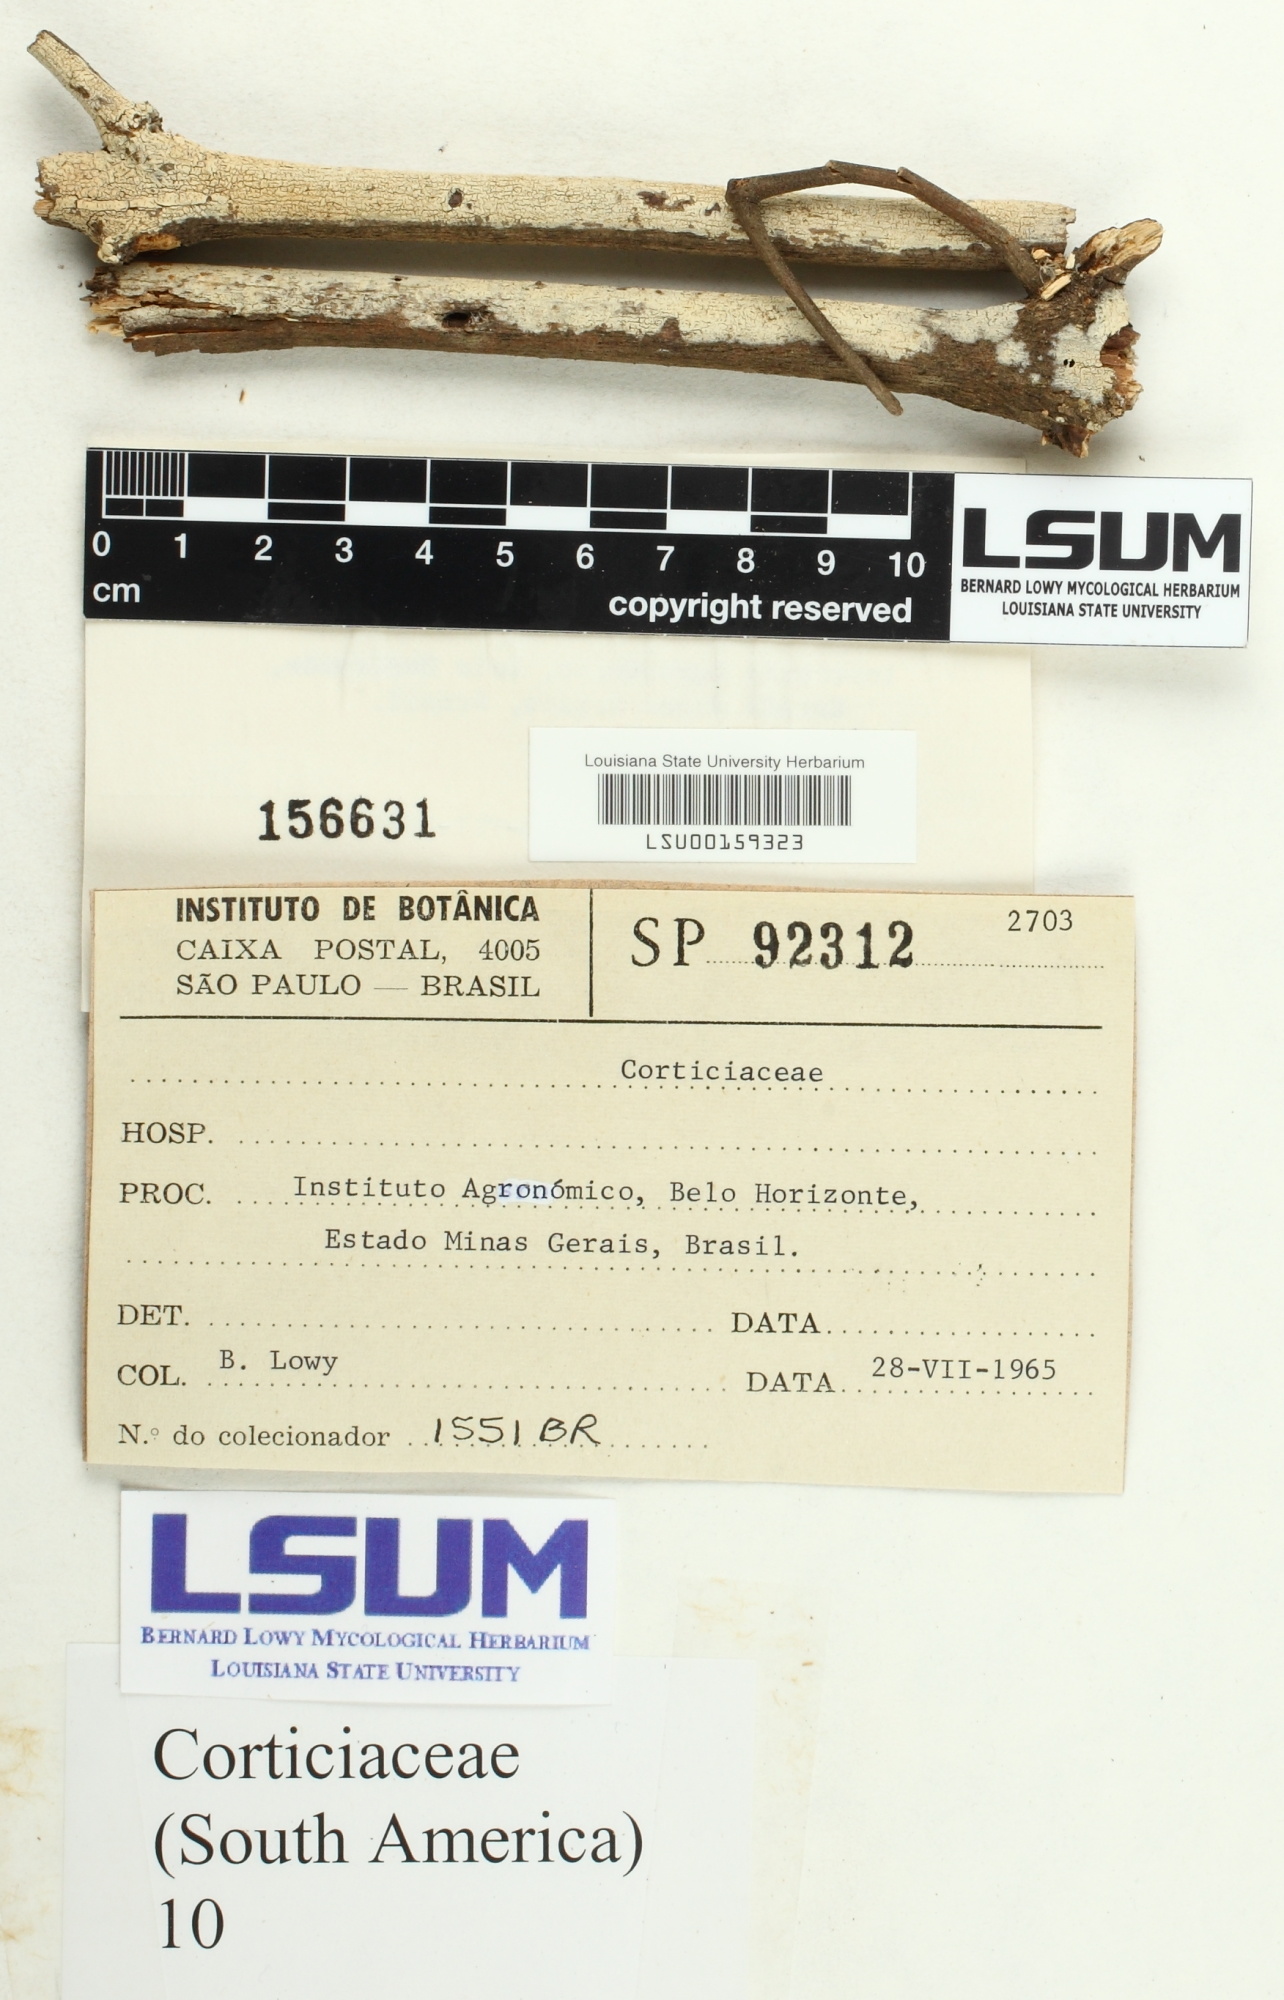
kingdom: Fungi
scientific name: Fungi
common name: Fungi
